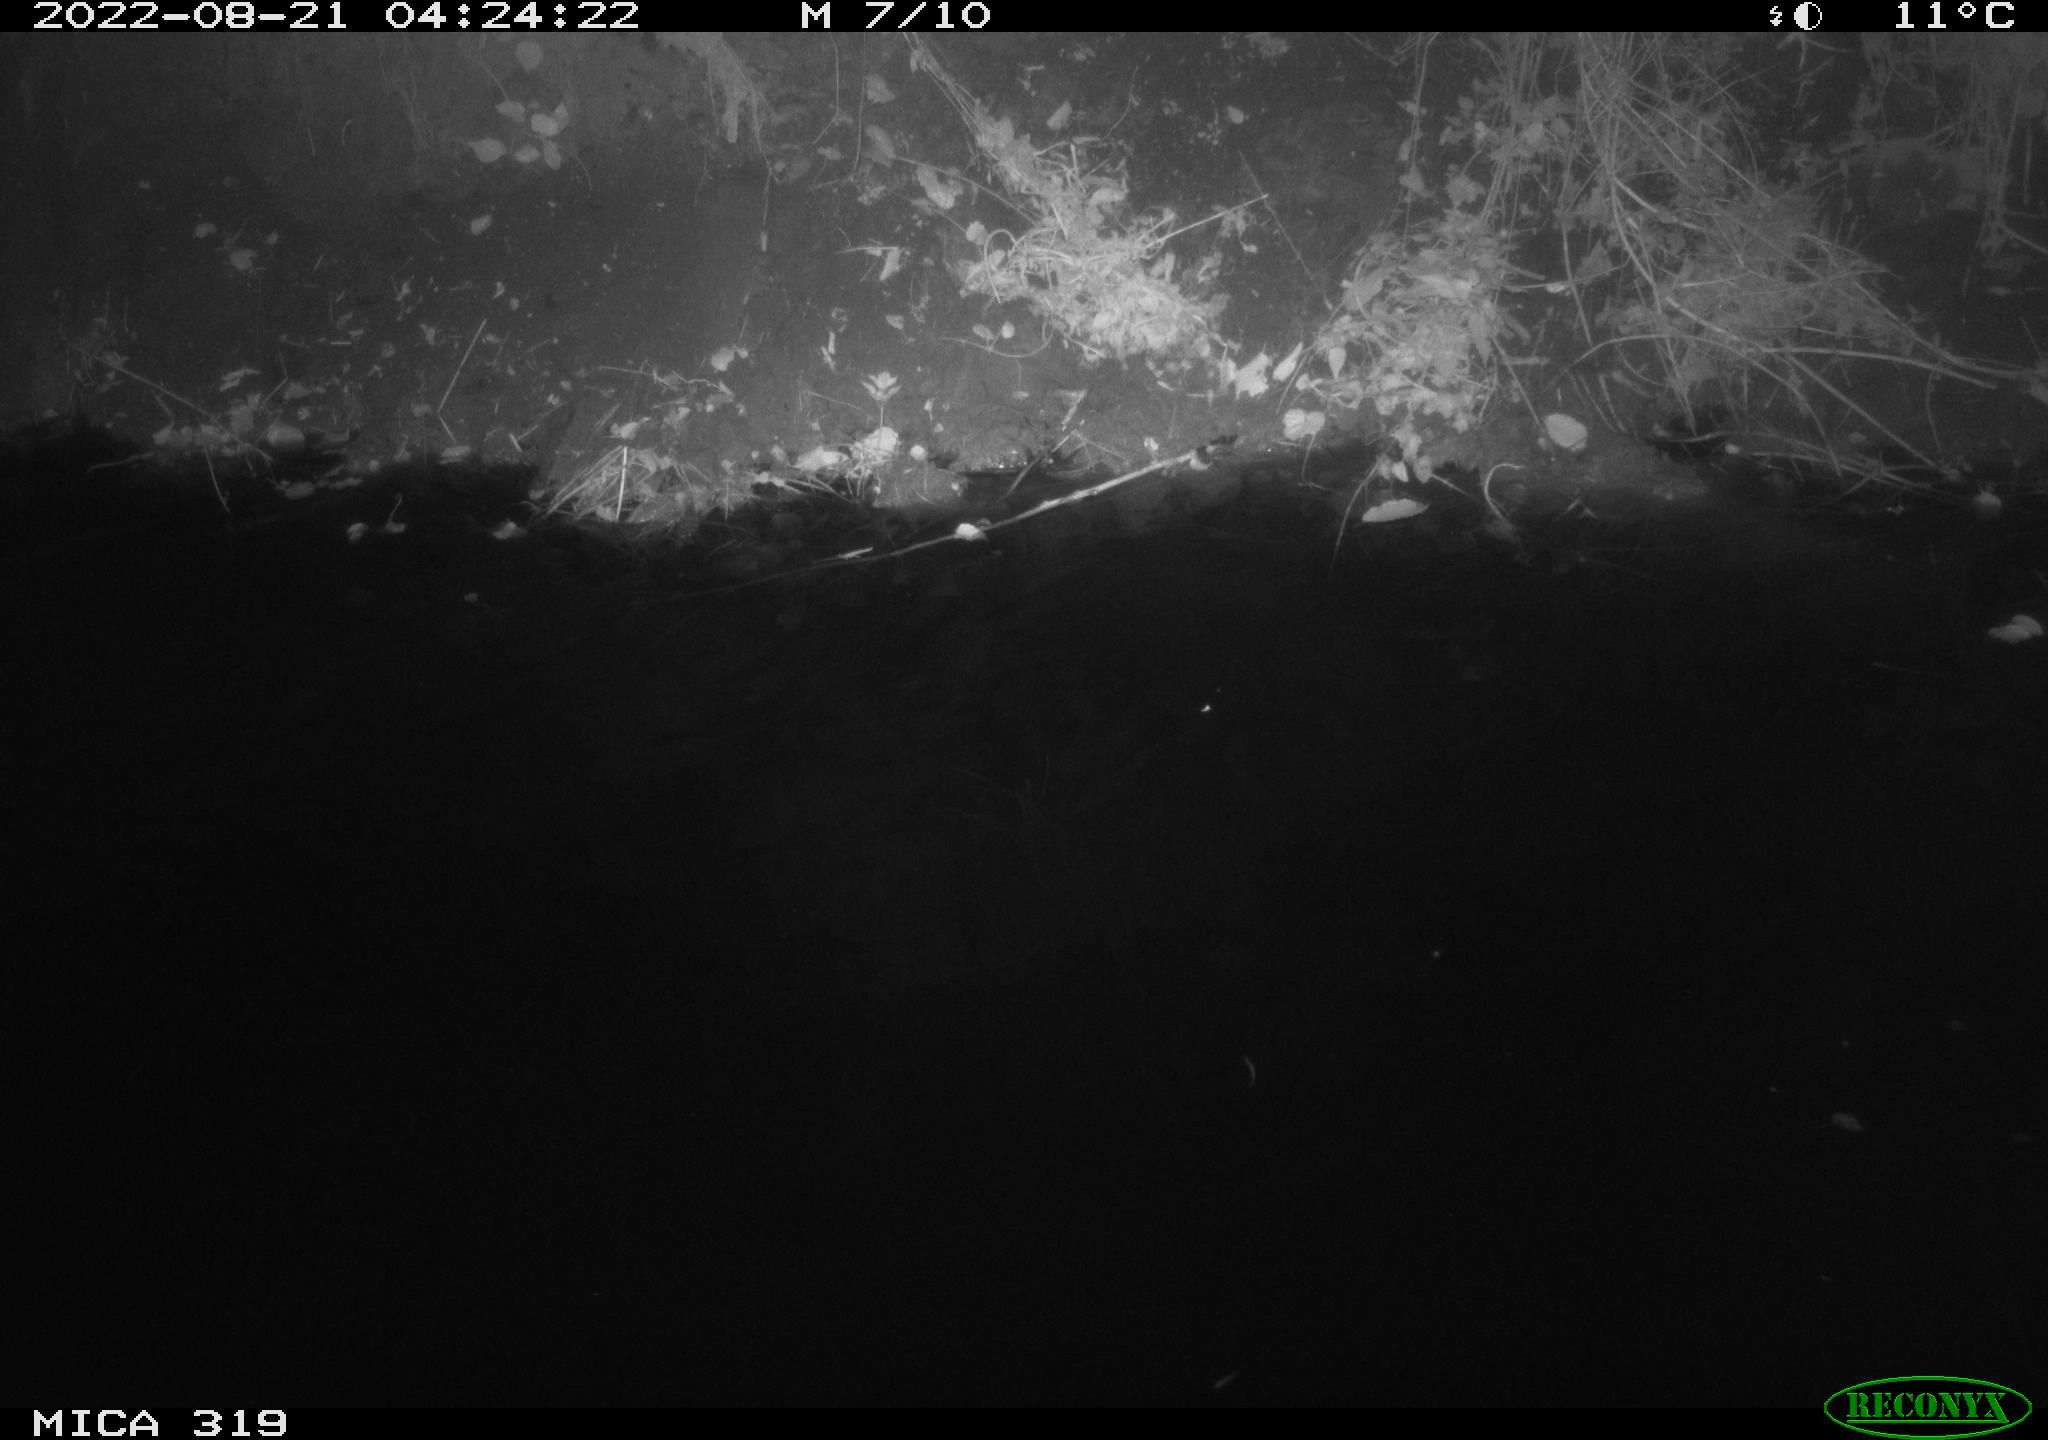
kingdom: Animalia
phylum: Chordata
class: Aves
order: Anseriformes
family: Anatidae
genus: Anas
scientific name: Anas
